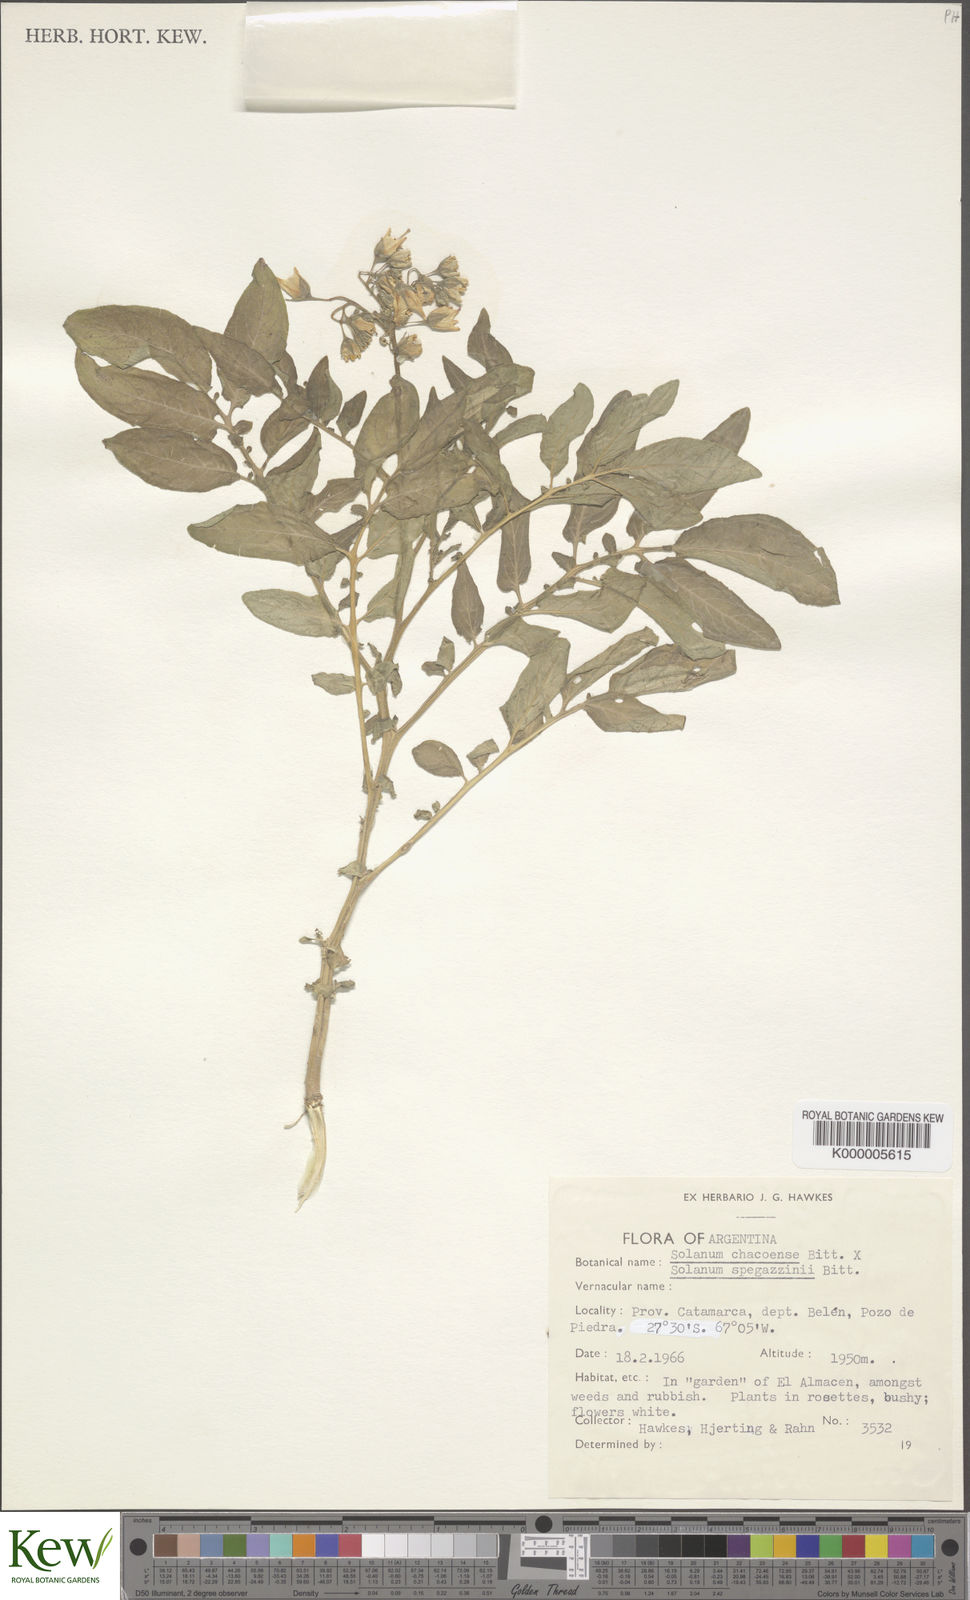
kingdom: Plantae
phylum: Tracheophyta
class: Magnoliopsida
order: Solanales
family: Solanaceae
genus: Solanum
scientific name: Solanum chacoense
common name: Chaco potato
